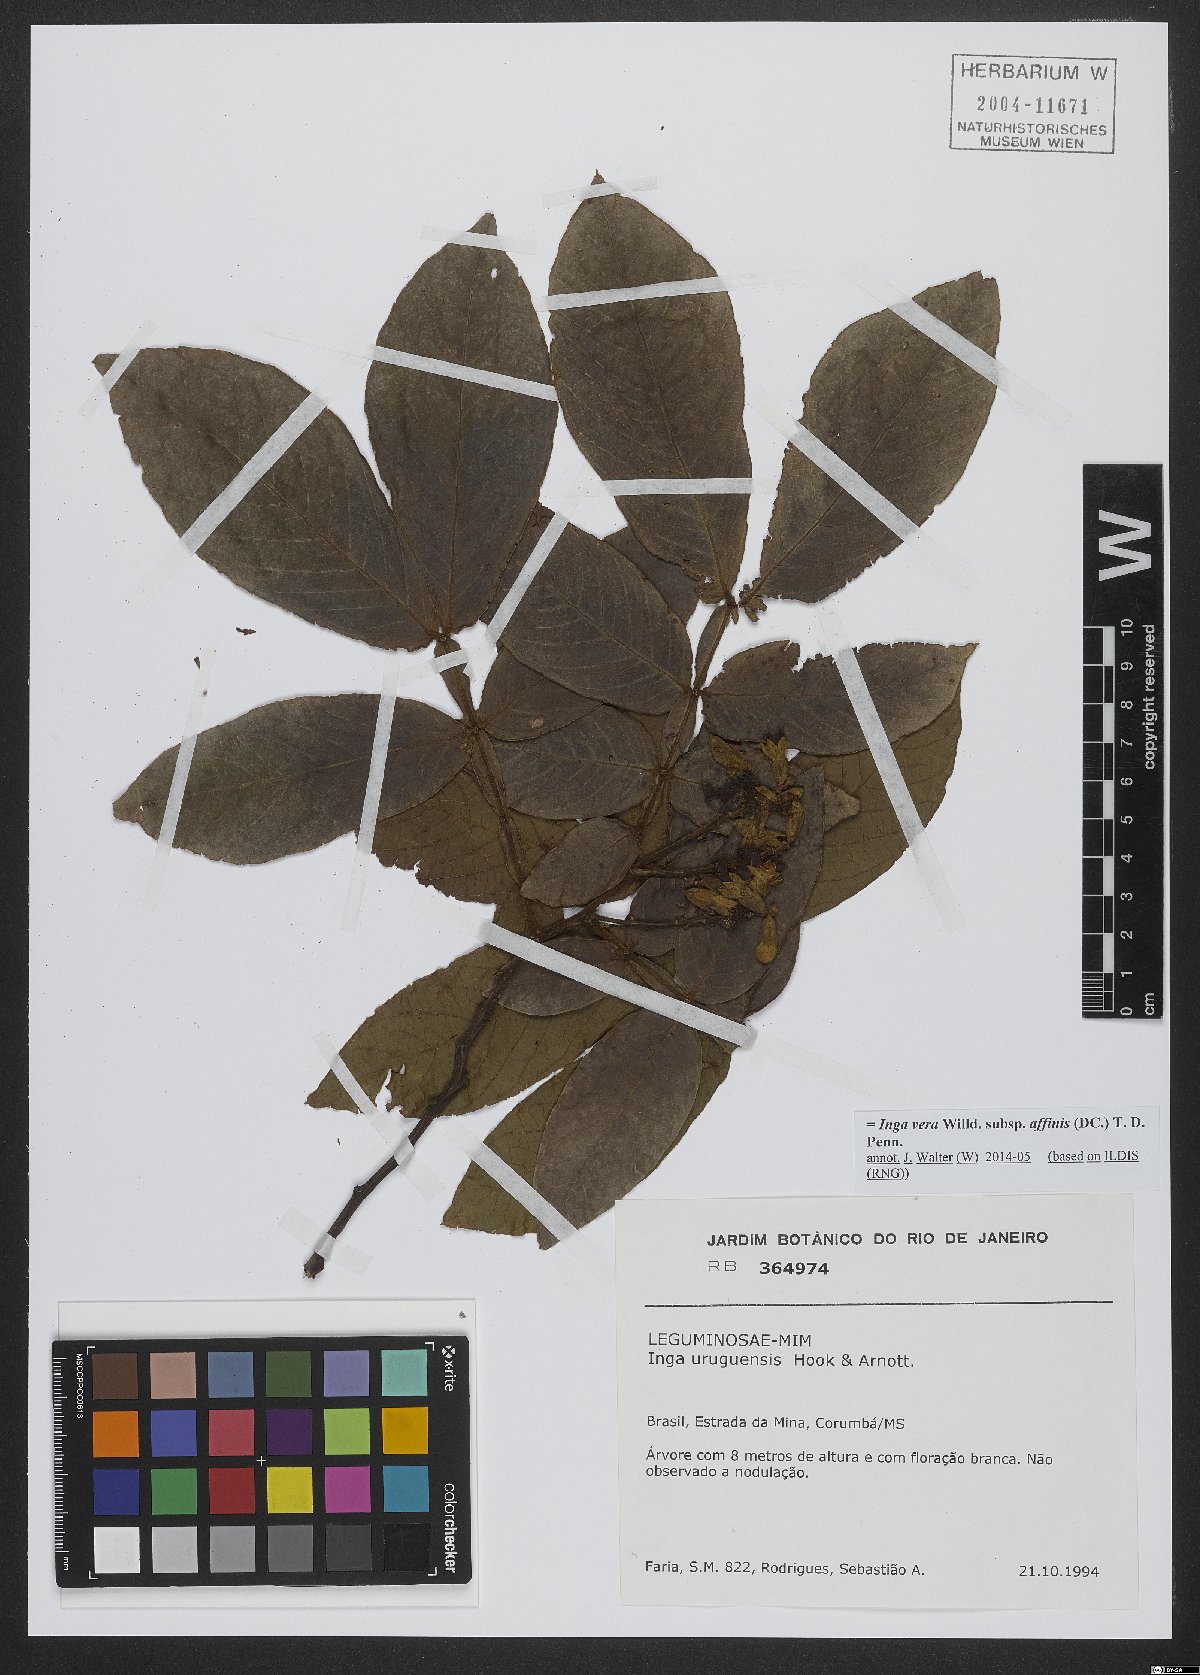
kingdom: Plantae
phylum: Tracheophyta
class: Magnoliopsida
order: Fabales
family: Fabaceae
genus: Inga
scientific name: Inga affinis
